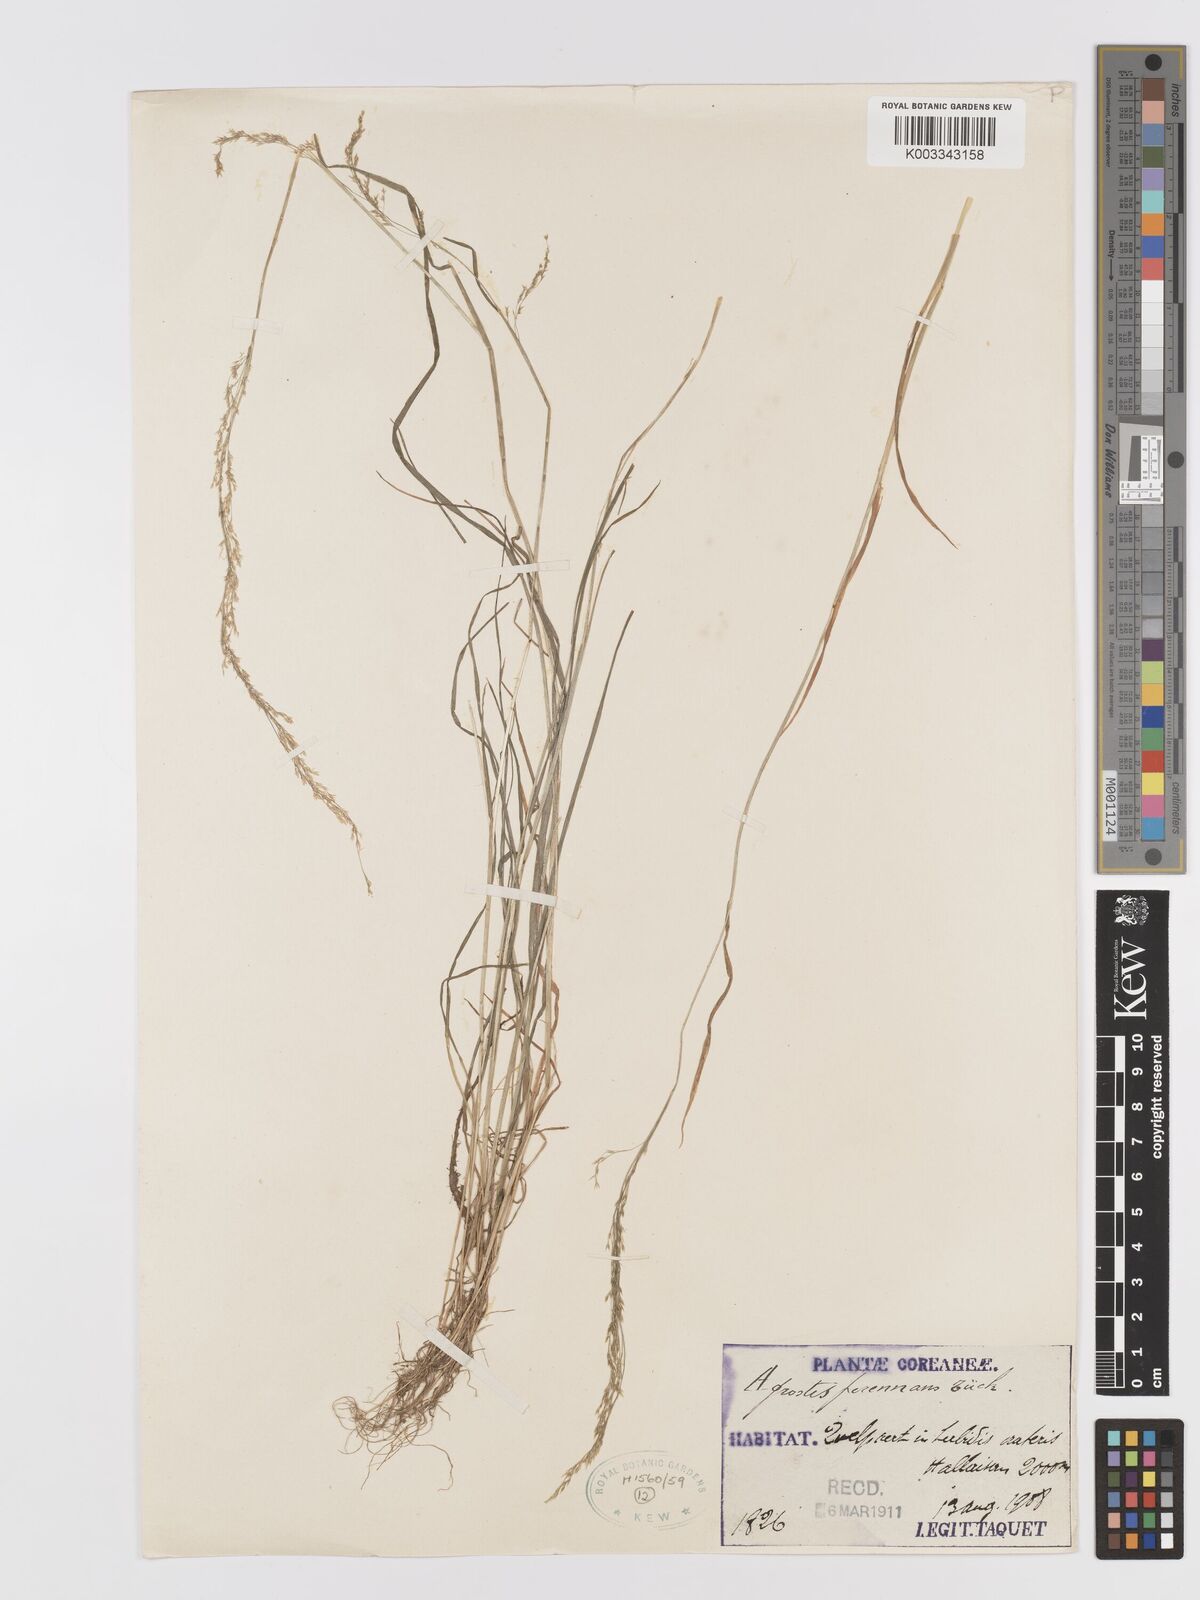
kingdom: Plantae
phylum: Tracheophyta
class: Liliopsida
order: Poales
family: Poaceae
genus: Agrostis
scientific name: Agrostis clavata
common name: Clavate bent
